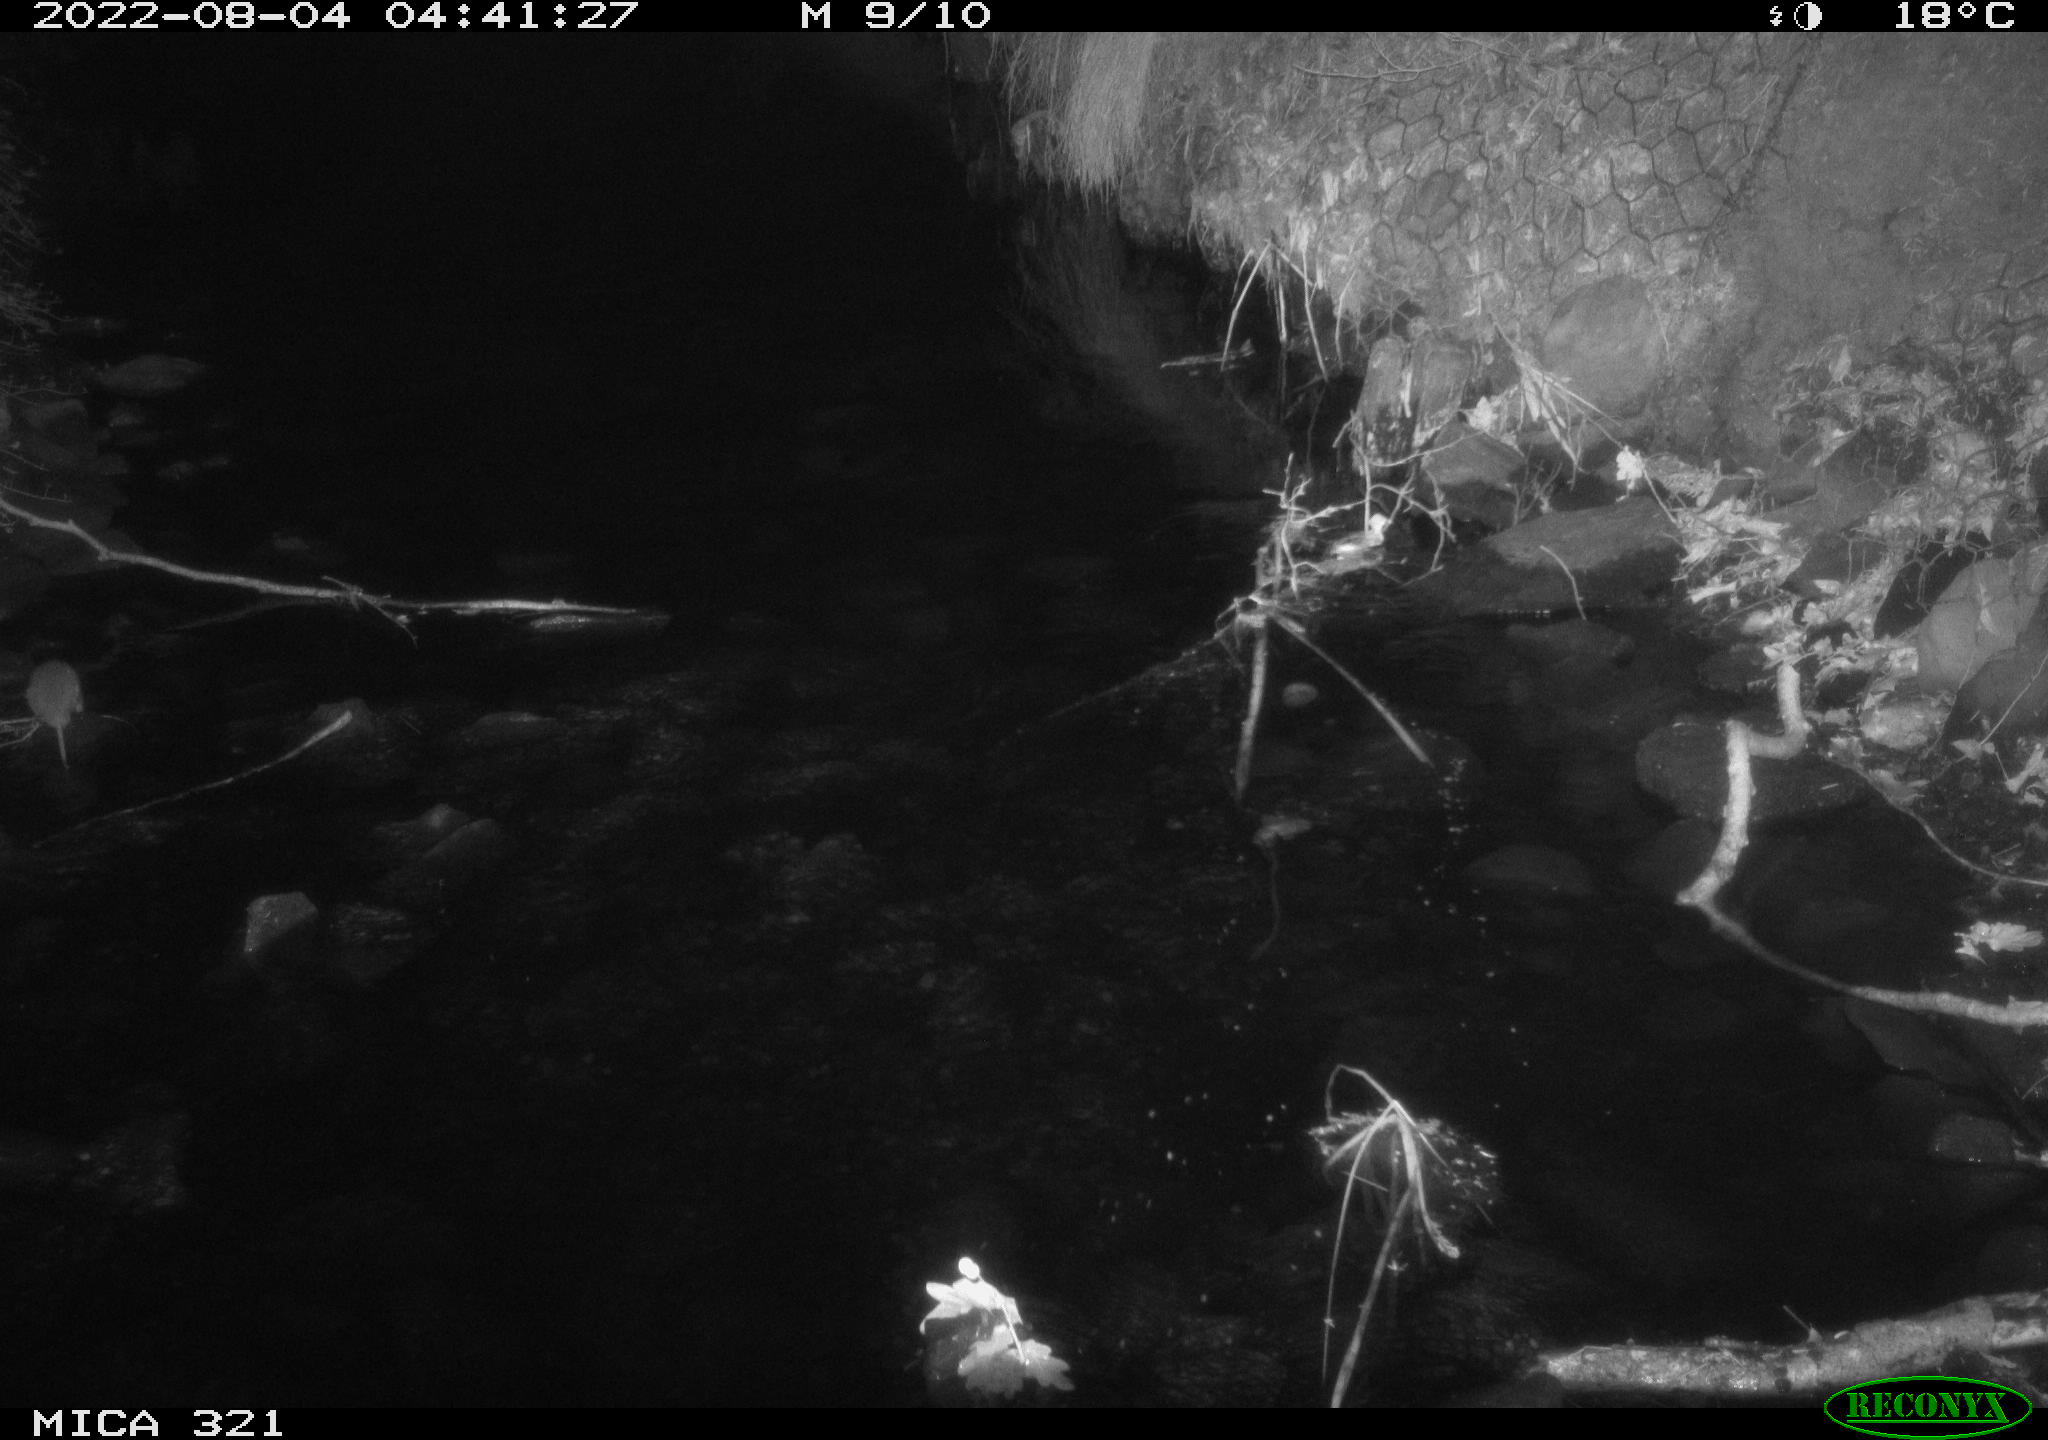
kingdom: Animalia
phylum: Chordata
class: Mammalia
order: Rodentia
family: Muridae
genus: Rattus
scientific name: Rattus norvegicus
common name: Brown rat
